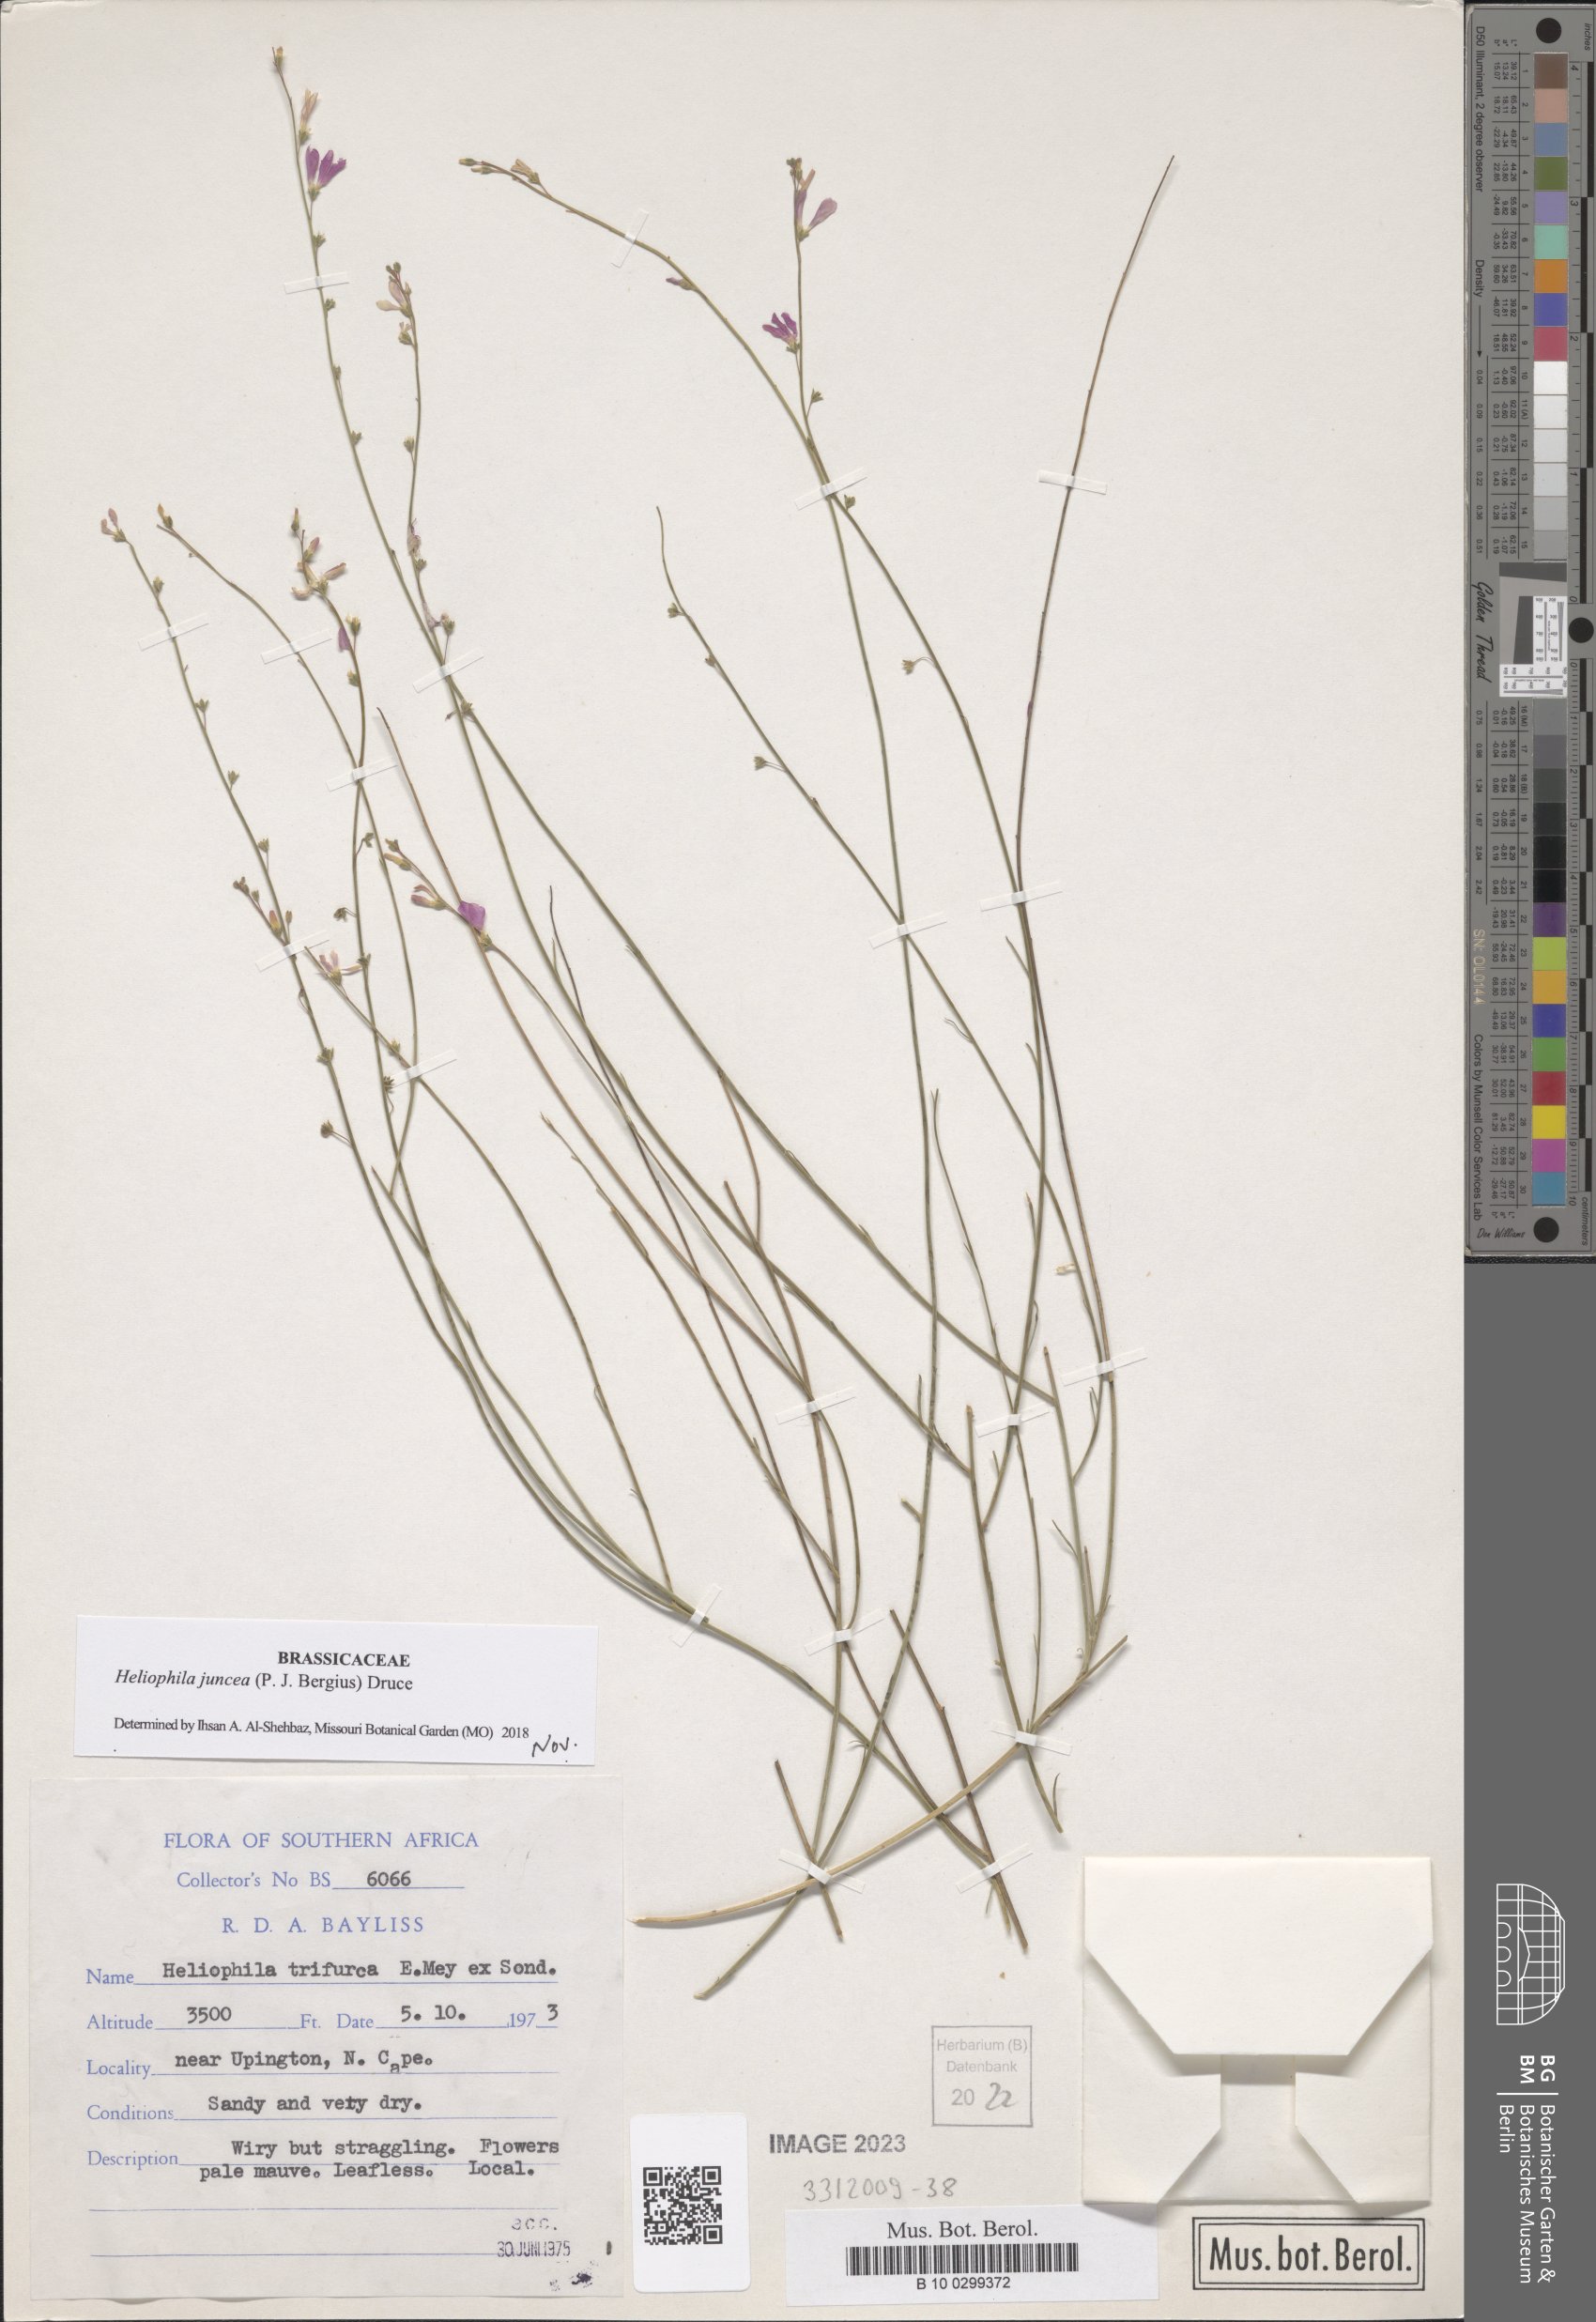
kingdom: Plantae
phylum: Tracheophyta
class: Magnoliopsida
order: Brassicales
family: Brassicaceae
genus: Heliophila
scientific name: Heliophila juncea
